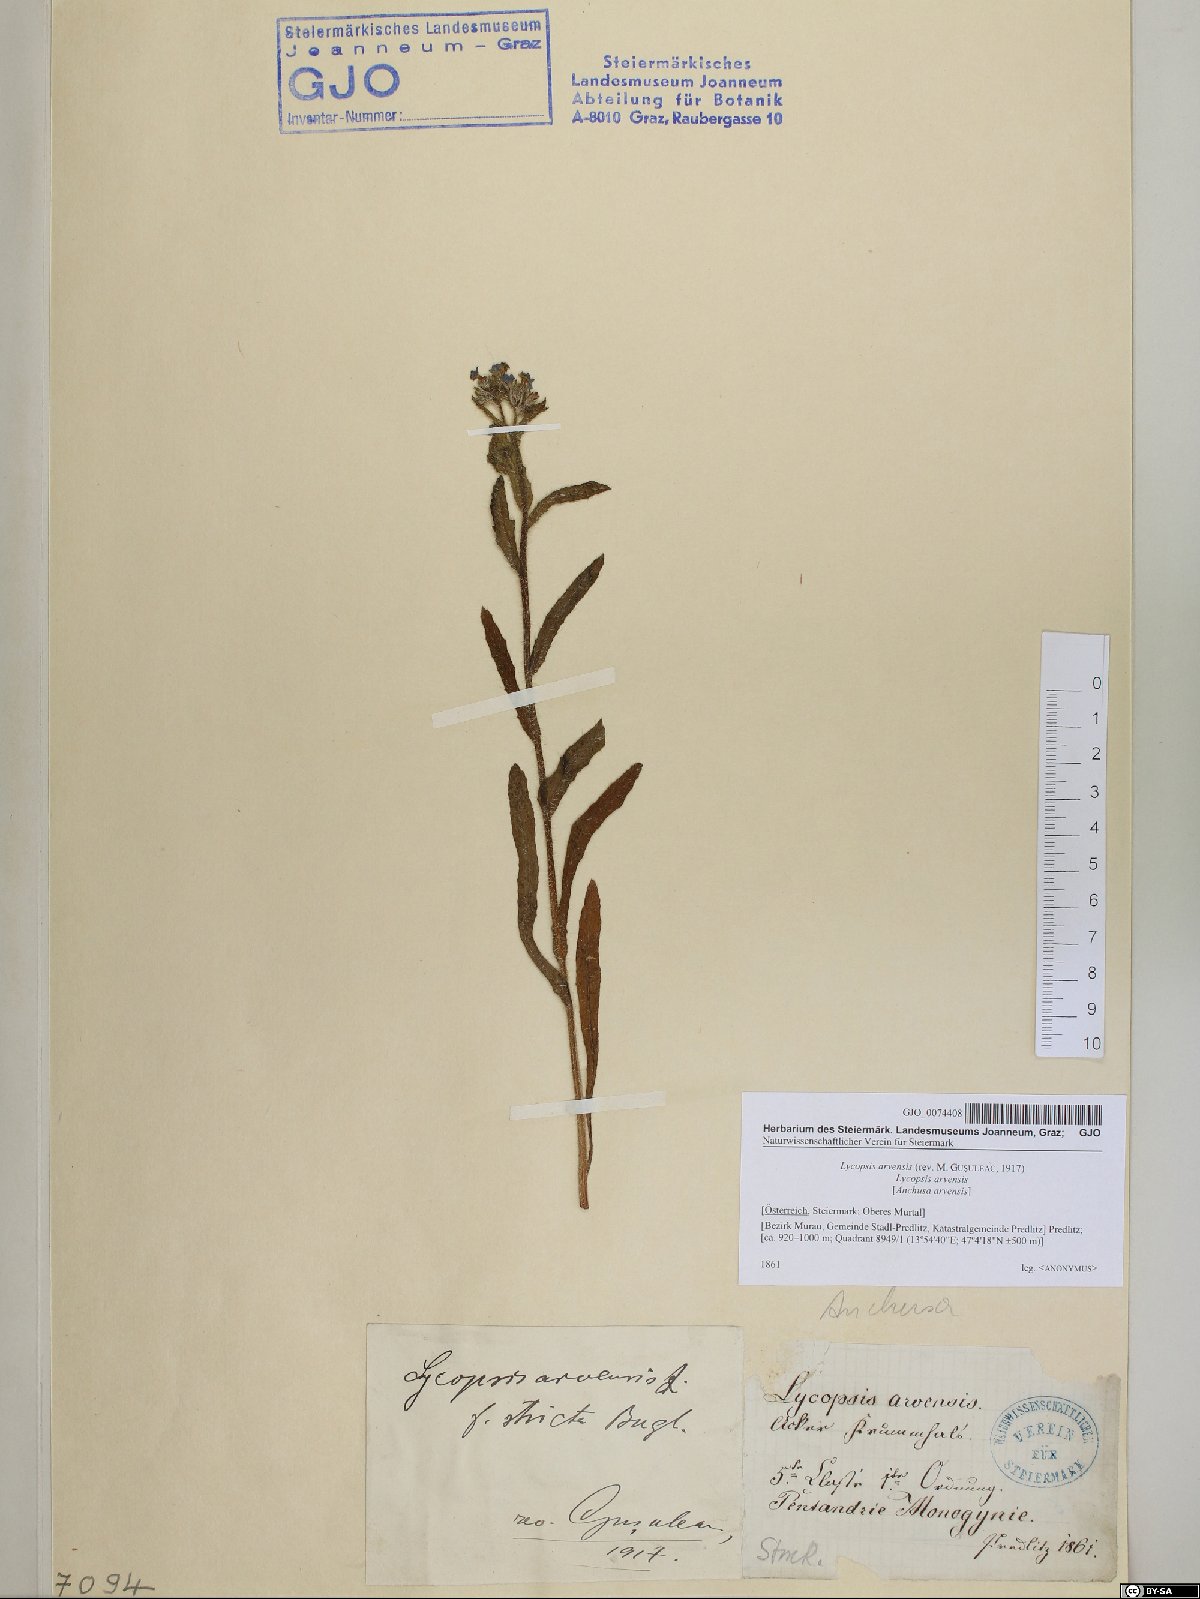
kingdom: Plantae
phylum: Tracheophyta
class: Magnoliopsida
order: Boraginales
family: Boraginaceae
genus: Lycopsis
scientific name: Lycopsis arvensis
